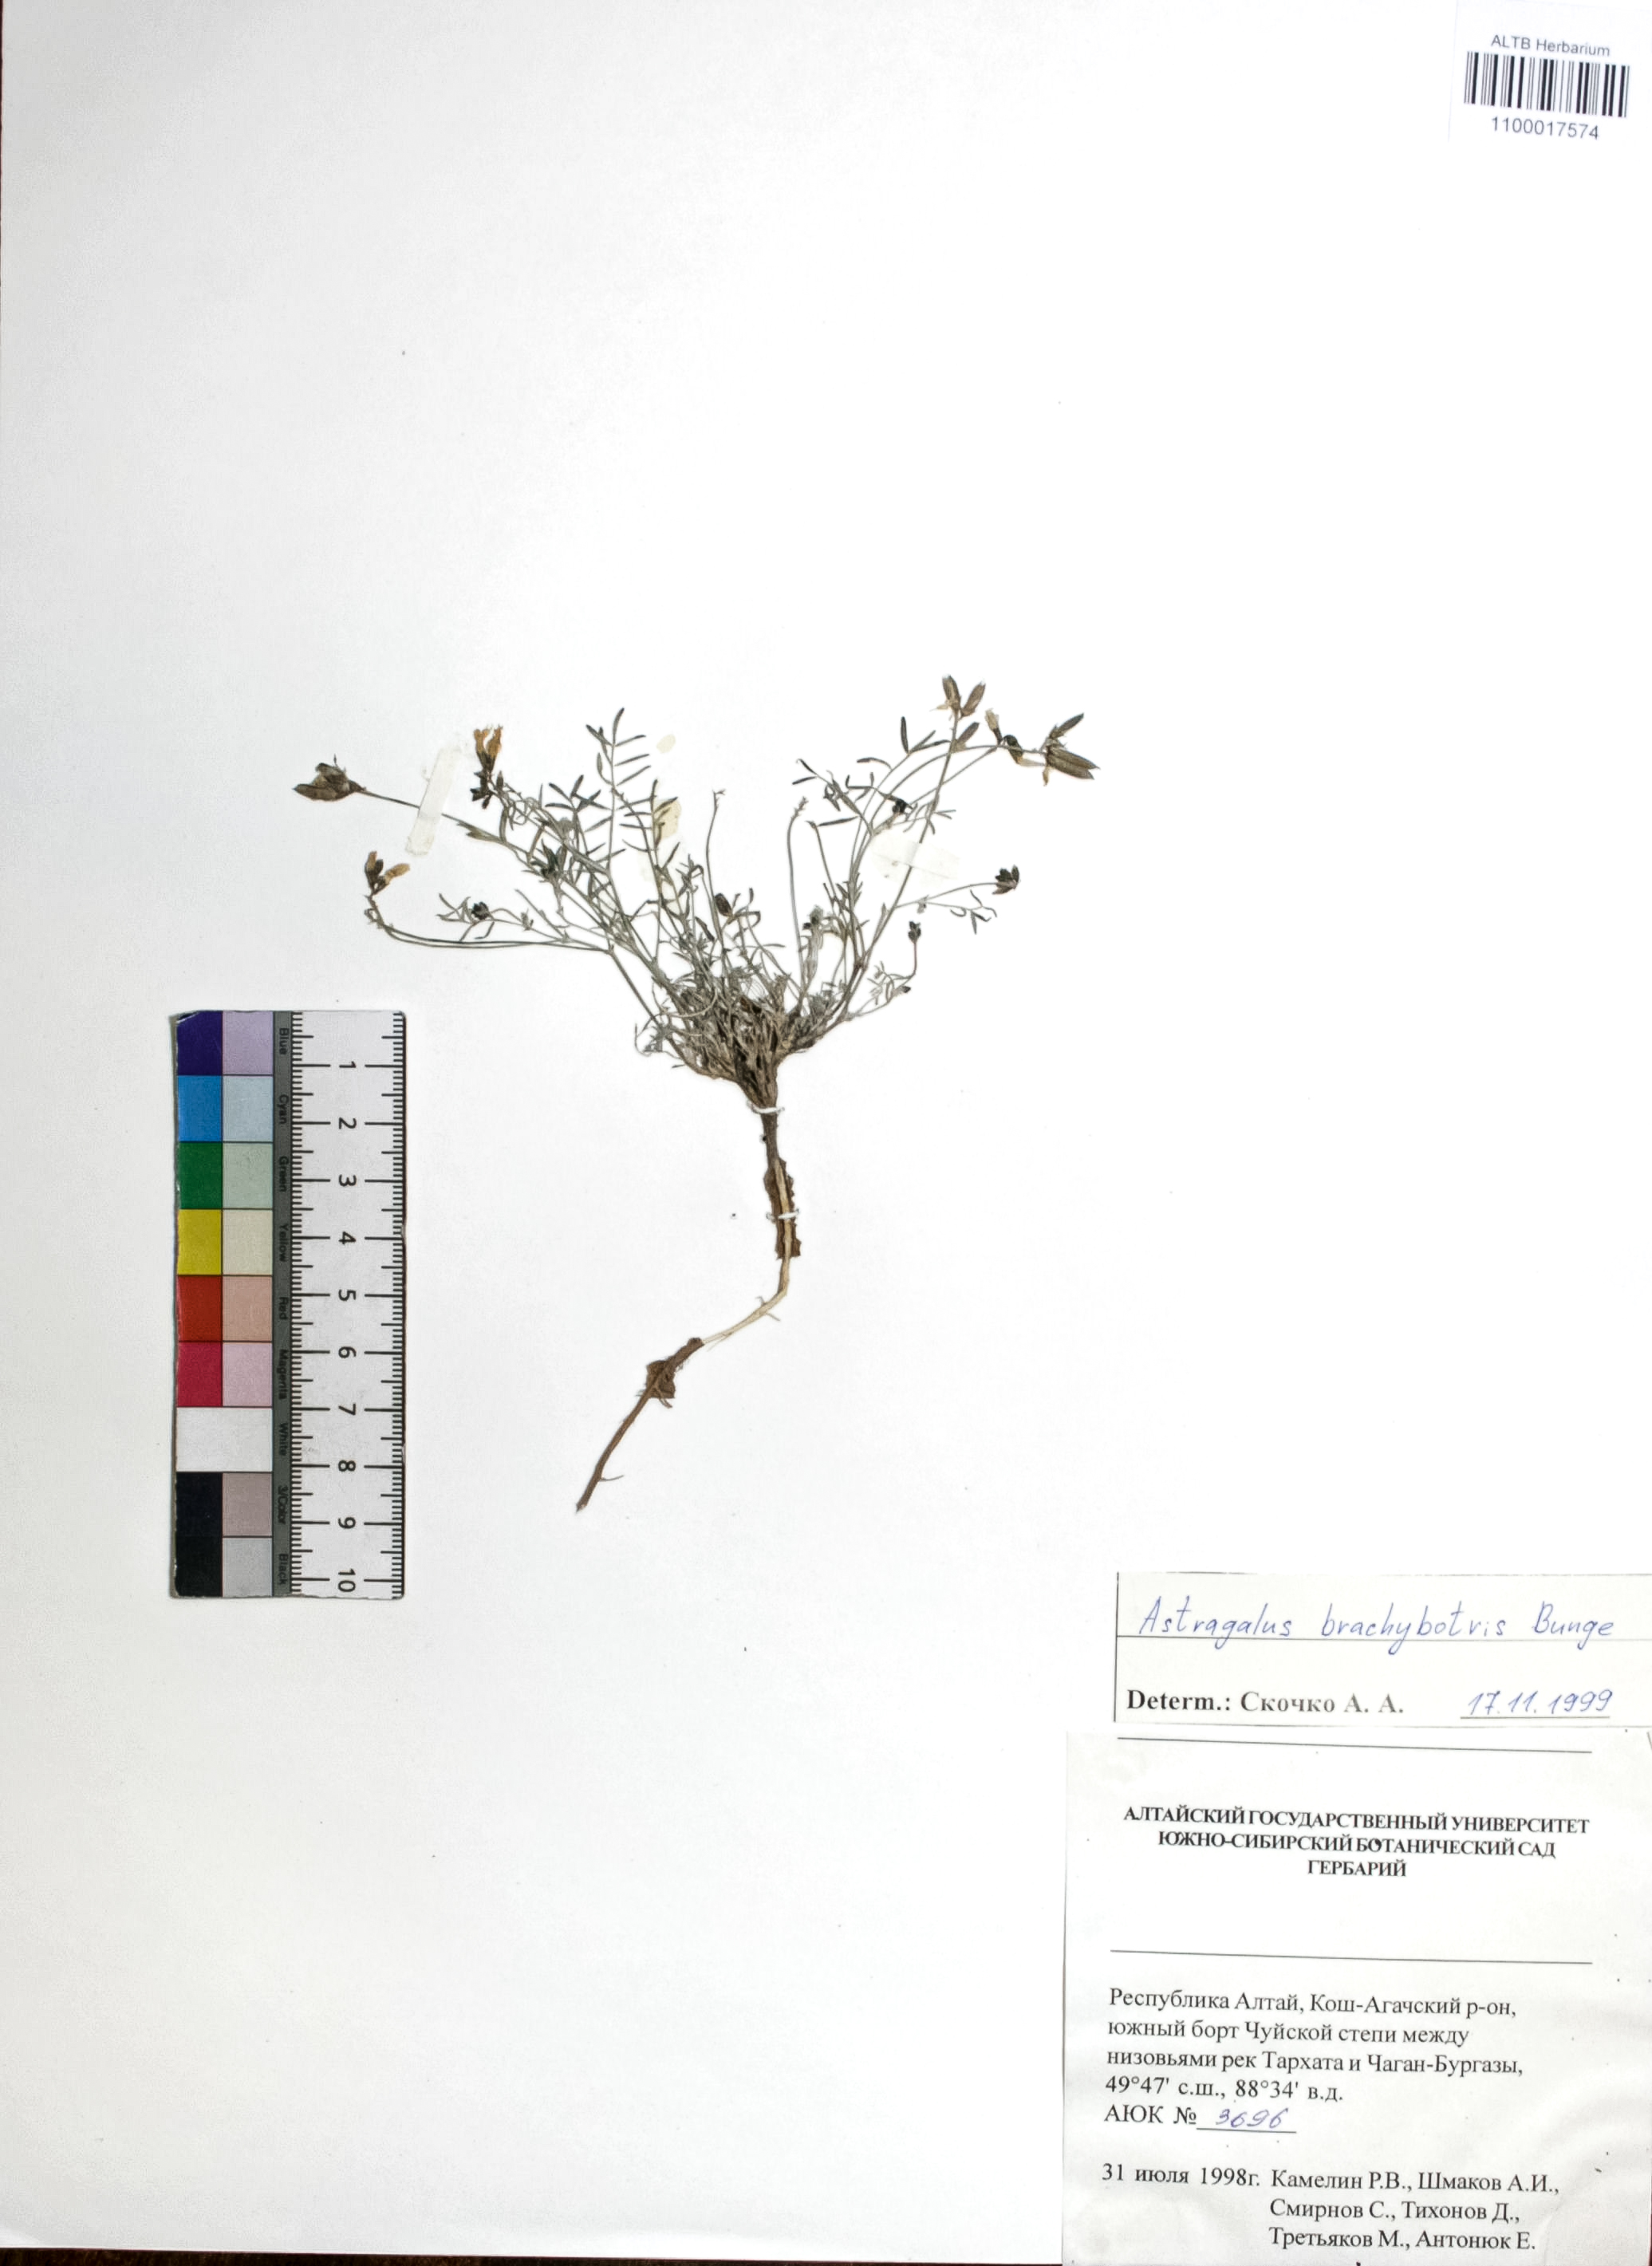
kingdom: Plantae
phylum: Tracheophyta
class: Magnoliopsida
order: Fabales
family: Fabaceae
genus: Astragalus
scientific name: Astragalus brachybotrys
